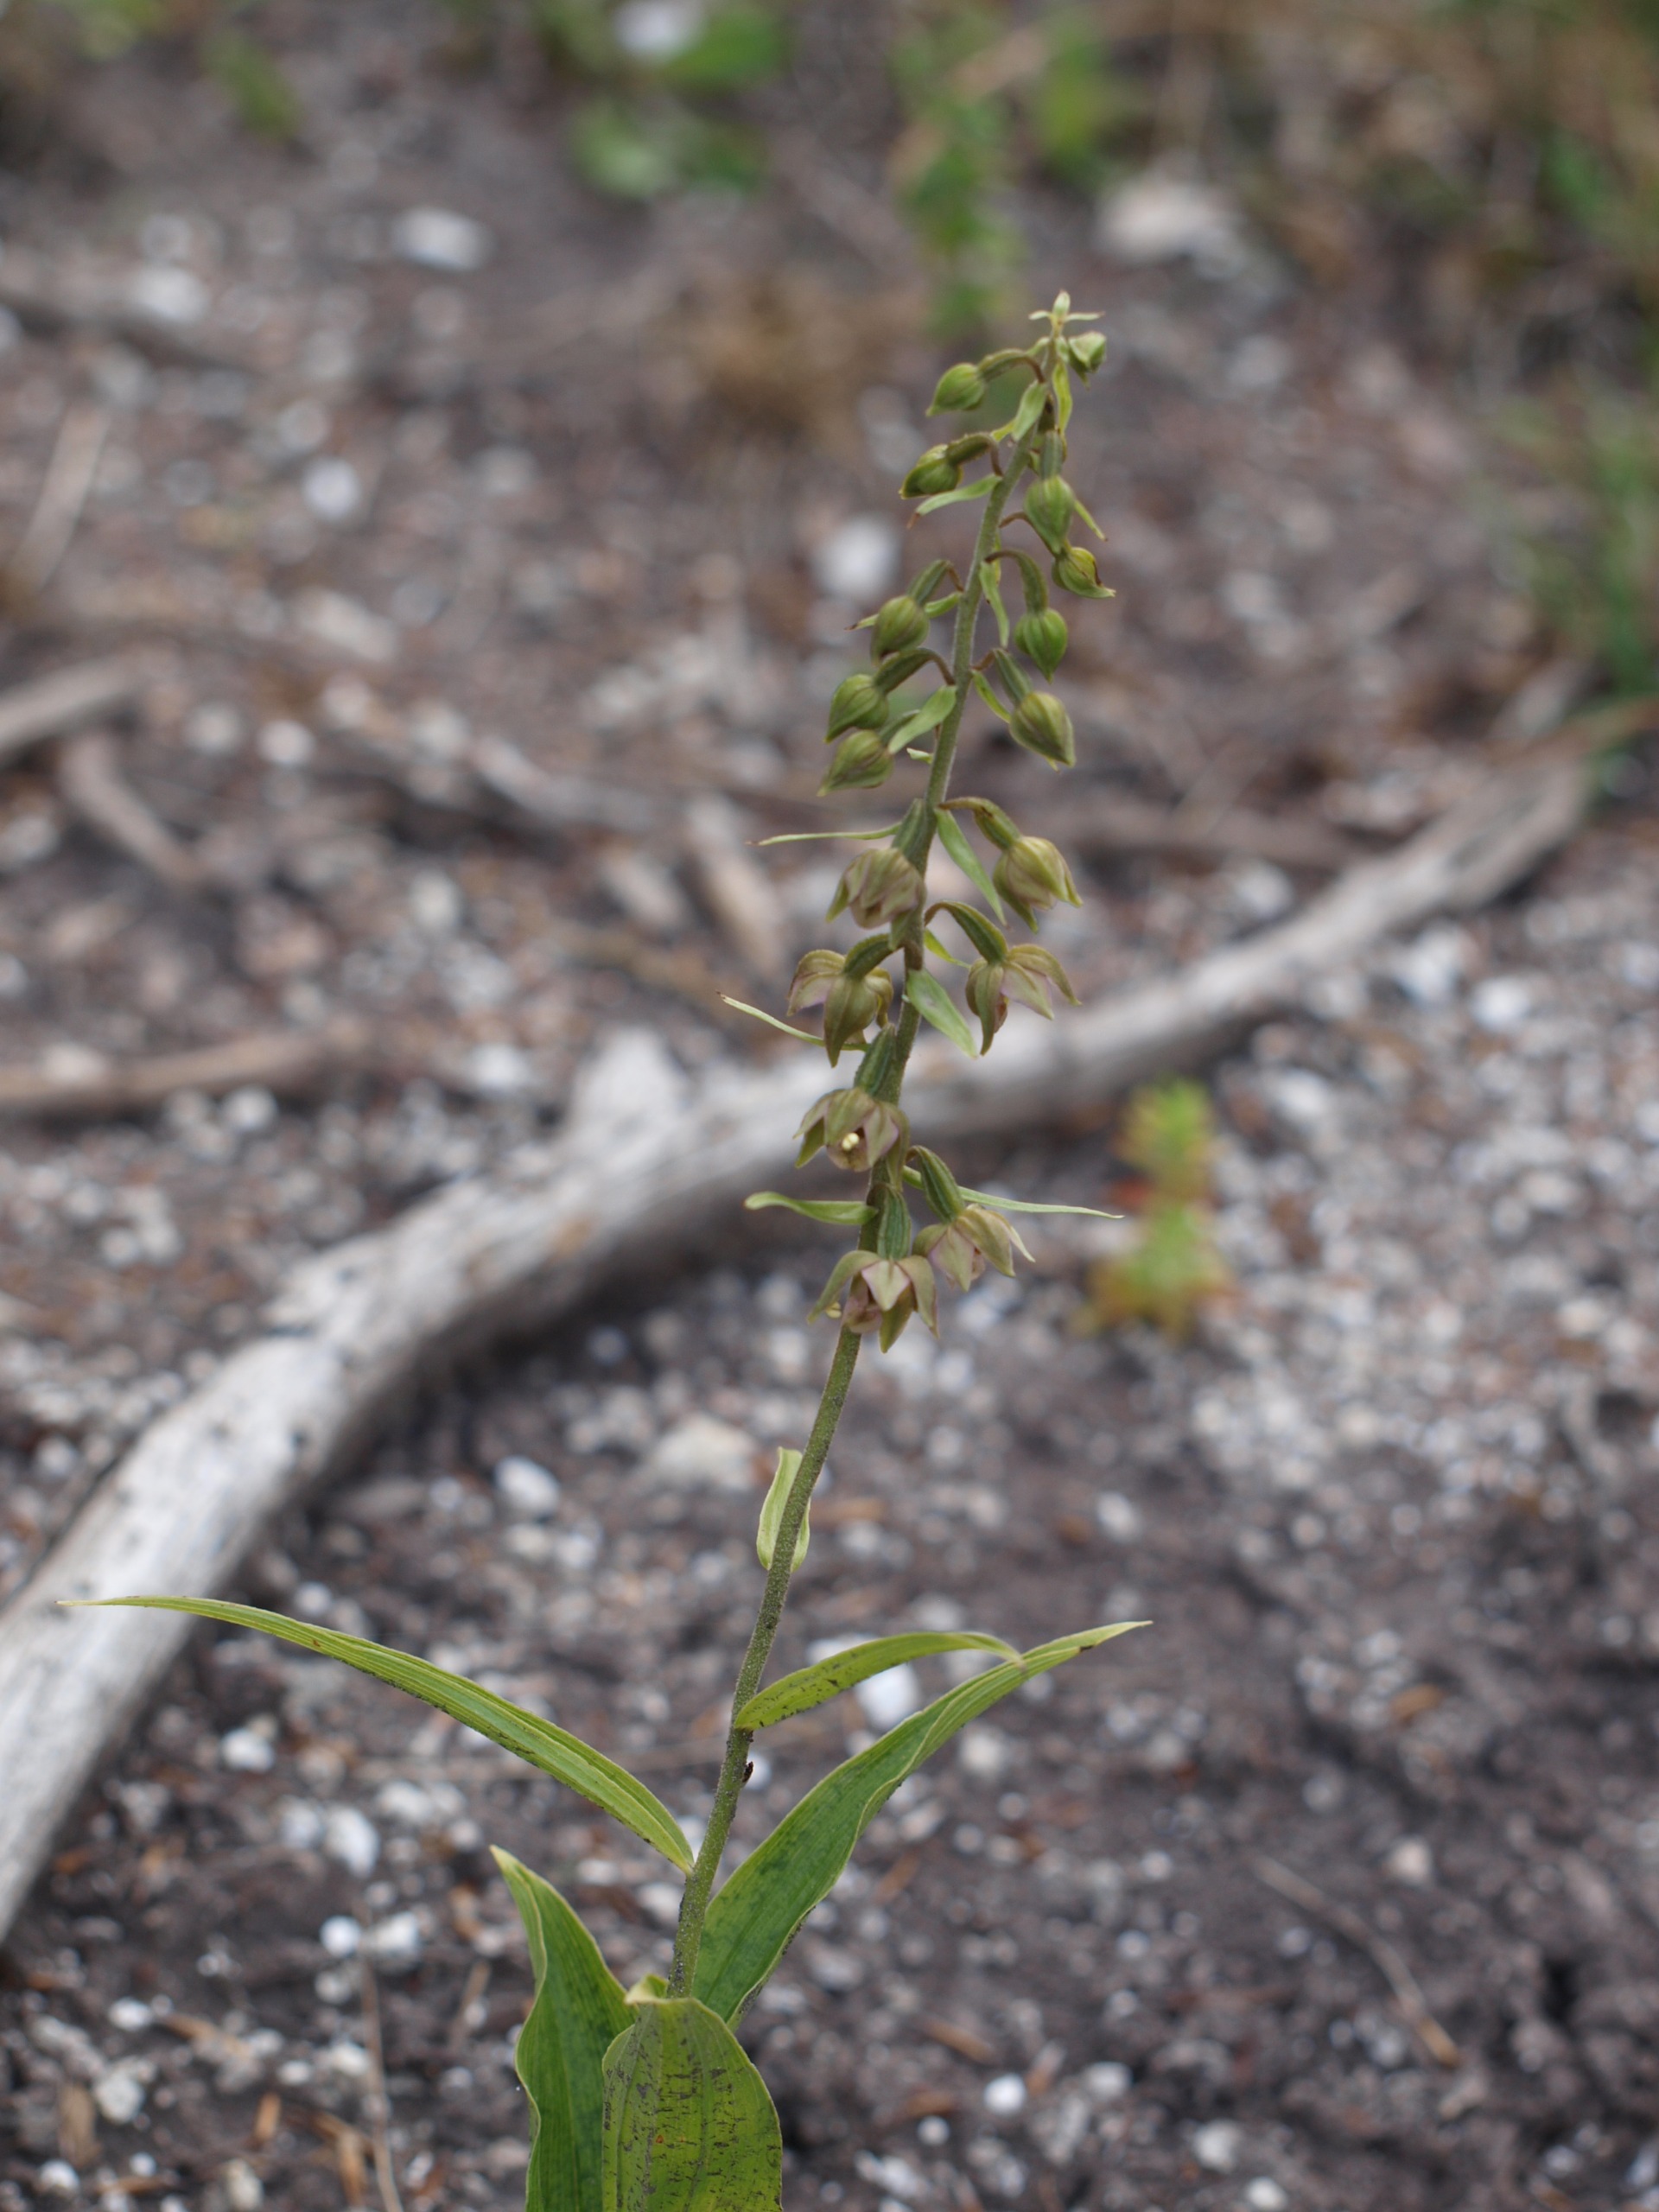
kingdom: Plantae
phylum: Tracheophyta
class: Liliopsida
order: Asparagales
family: Orchidaceae
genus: Epipactis
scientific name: Epipactis helleborine
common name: Skov-hullæbe
